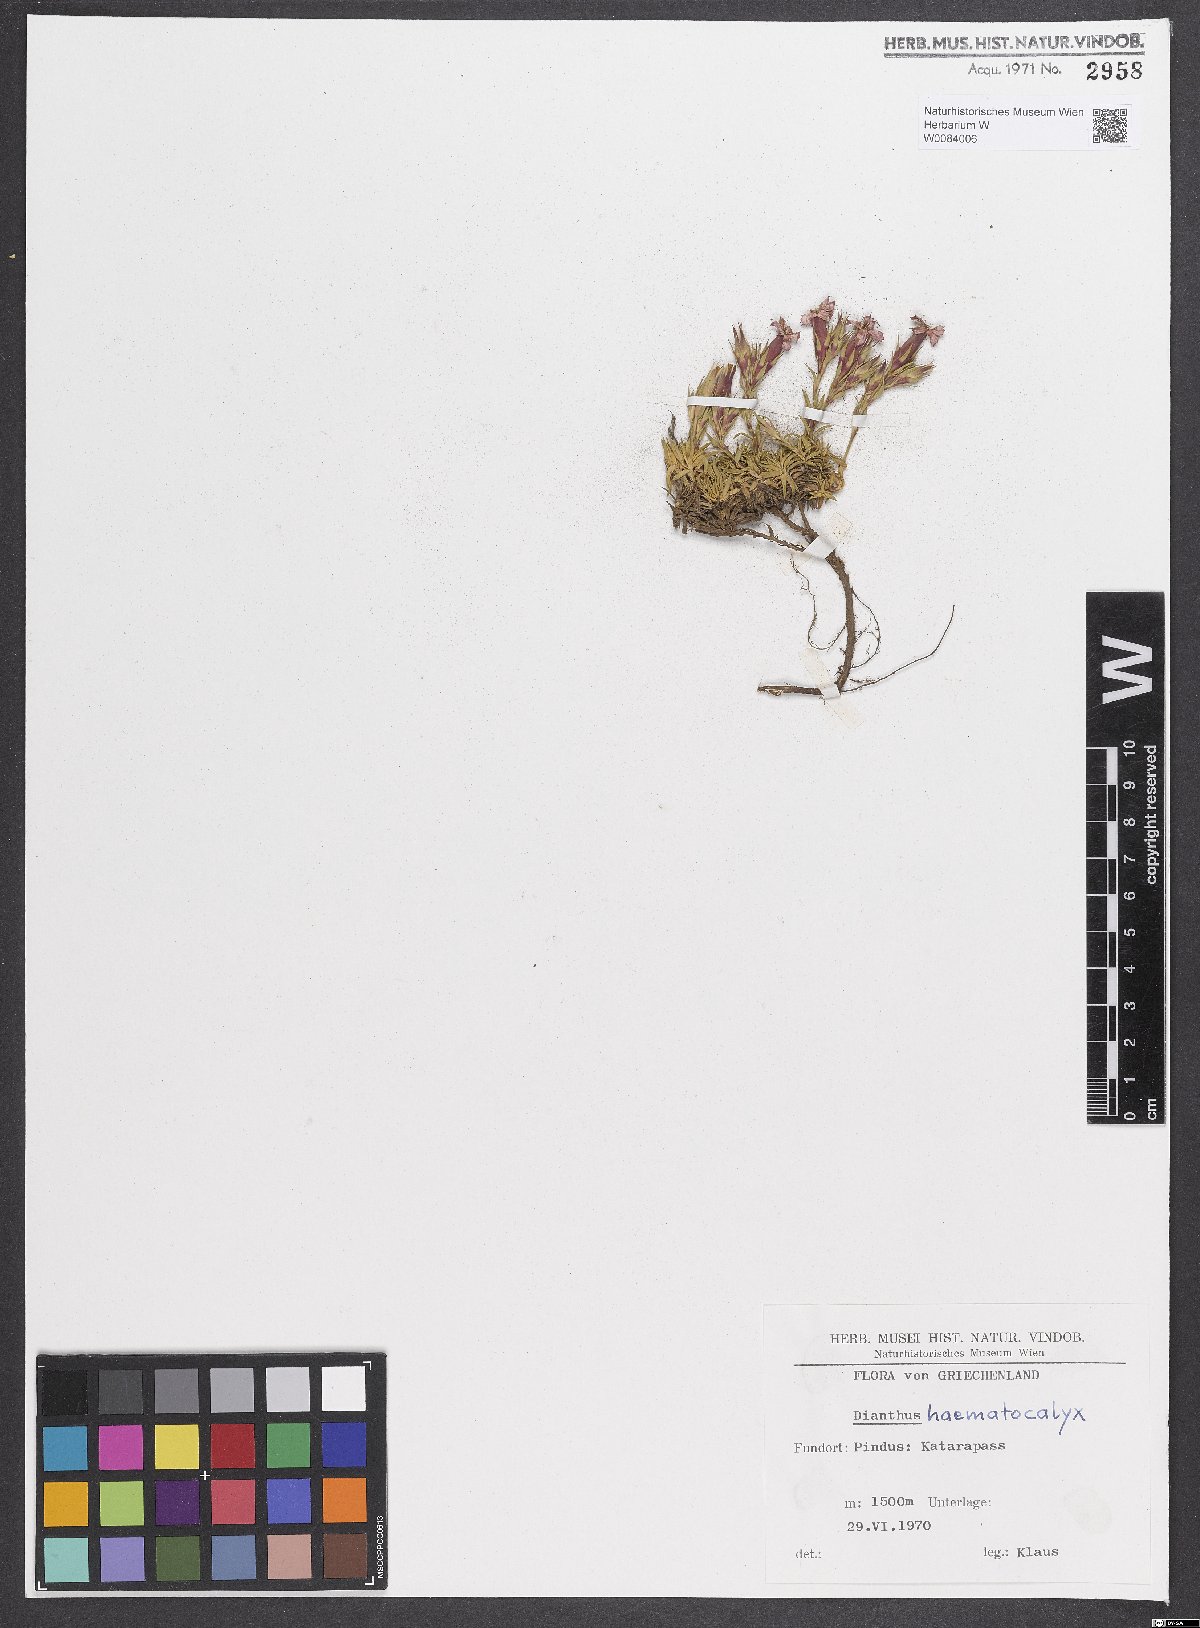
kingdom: Plantae
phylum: Tracheophyta
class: Magnoliopsida
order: Caryophyllales
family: Caryophyllaceae
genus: Dianthus
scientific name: Dianthus haematocalyx
